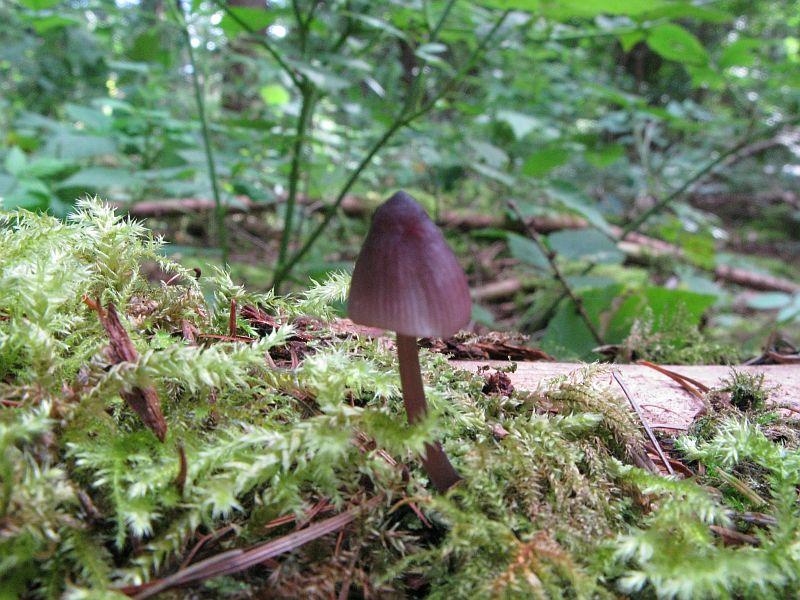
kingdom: Fungi
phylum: Basidiomycota
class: Agaricomycetes
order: Agaricales
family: Mycenaceae
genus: Mycena
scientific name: Mycena purpureofusca
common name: purpur-huesvamp
